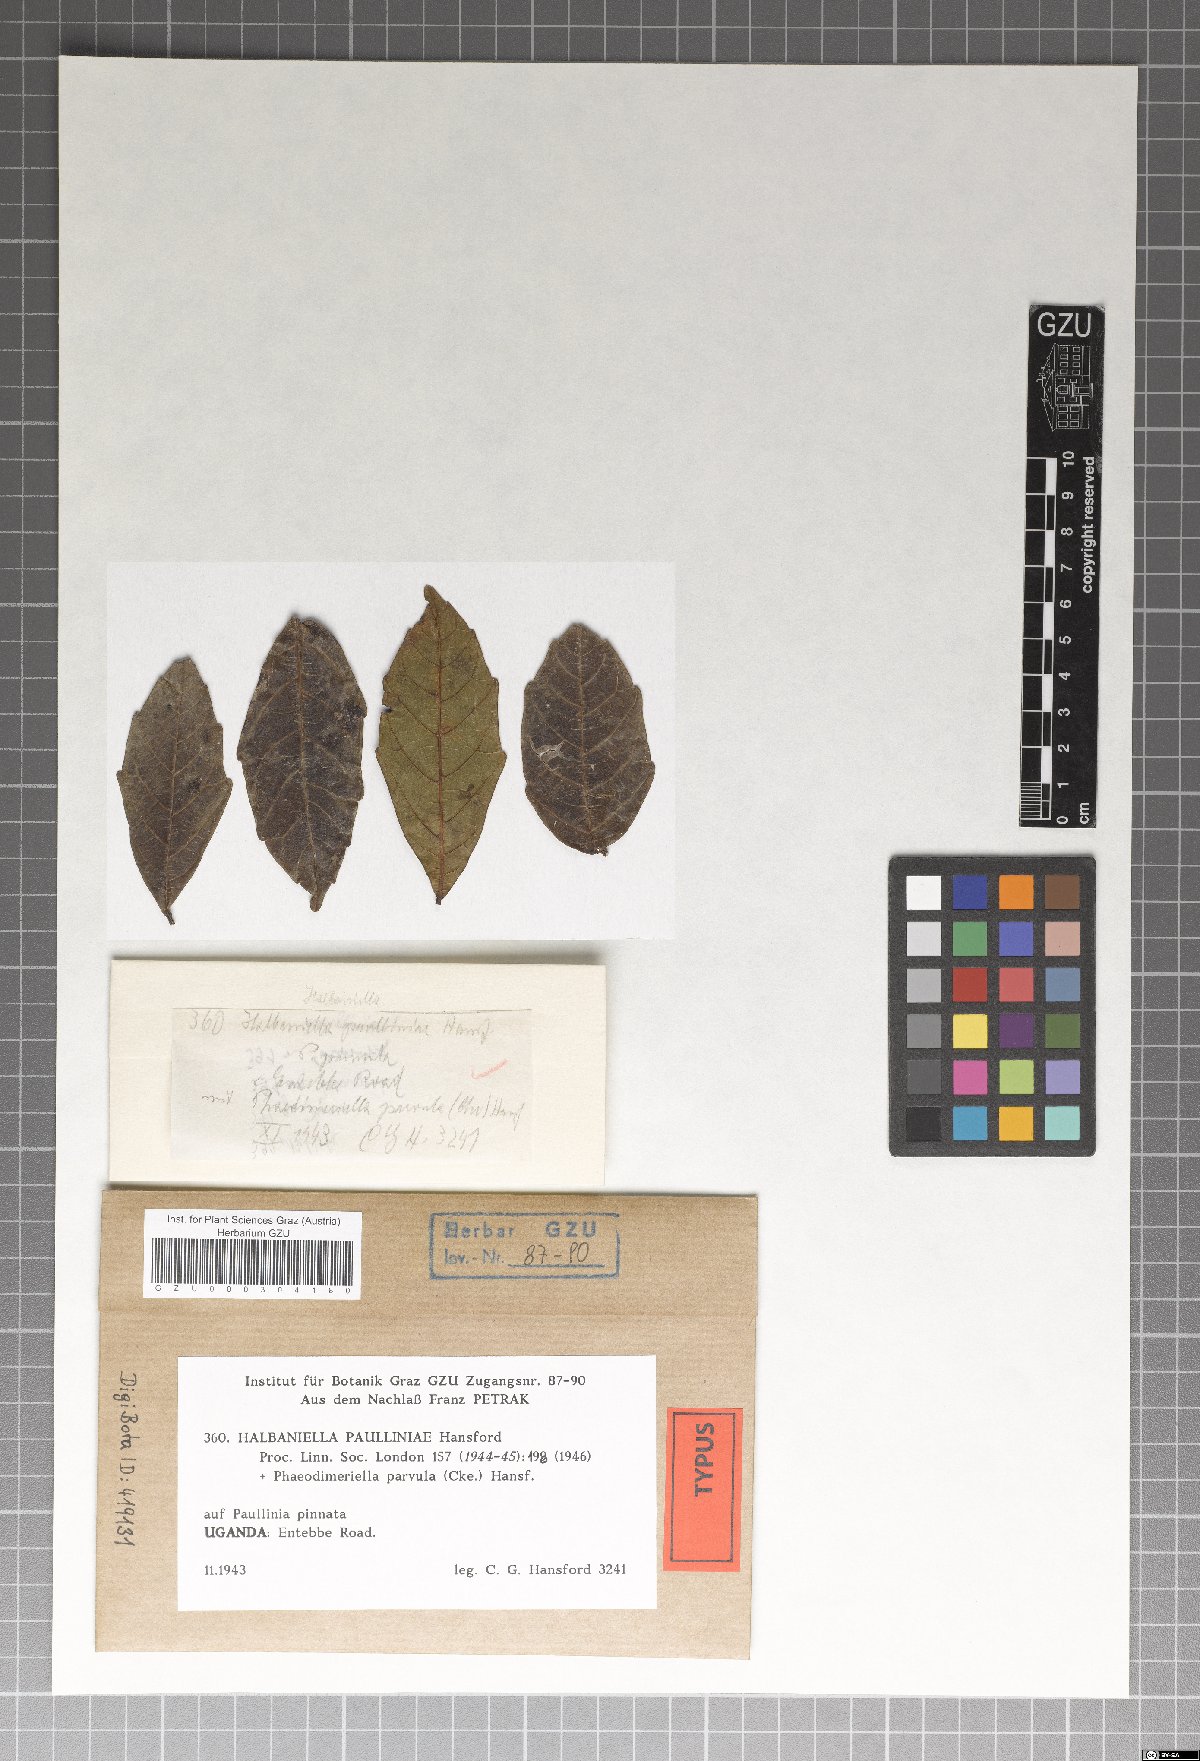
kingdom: Fungi
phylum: Ascomycota
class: Dothideomycetes
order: Microthyriales
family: Trichothyriaceae
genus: Halbaniella
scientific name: Halbaniella paulliniae
